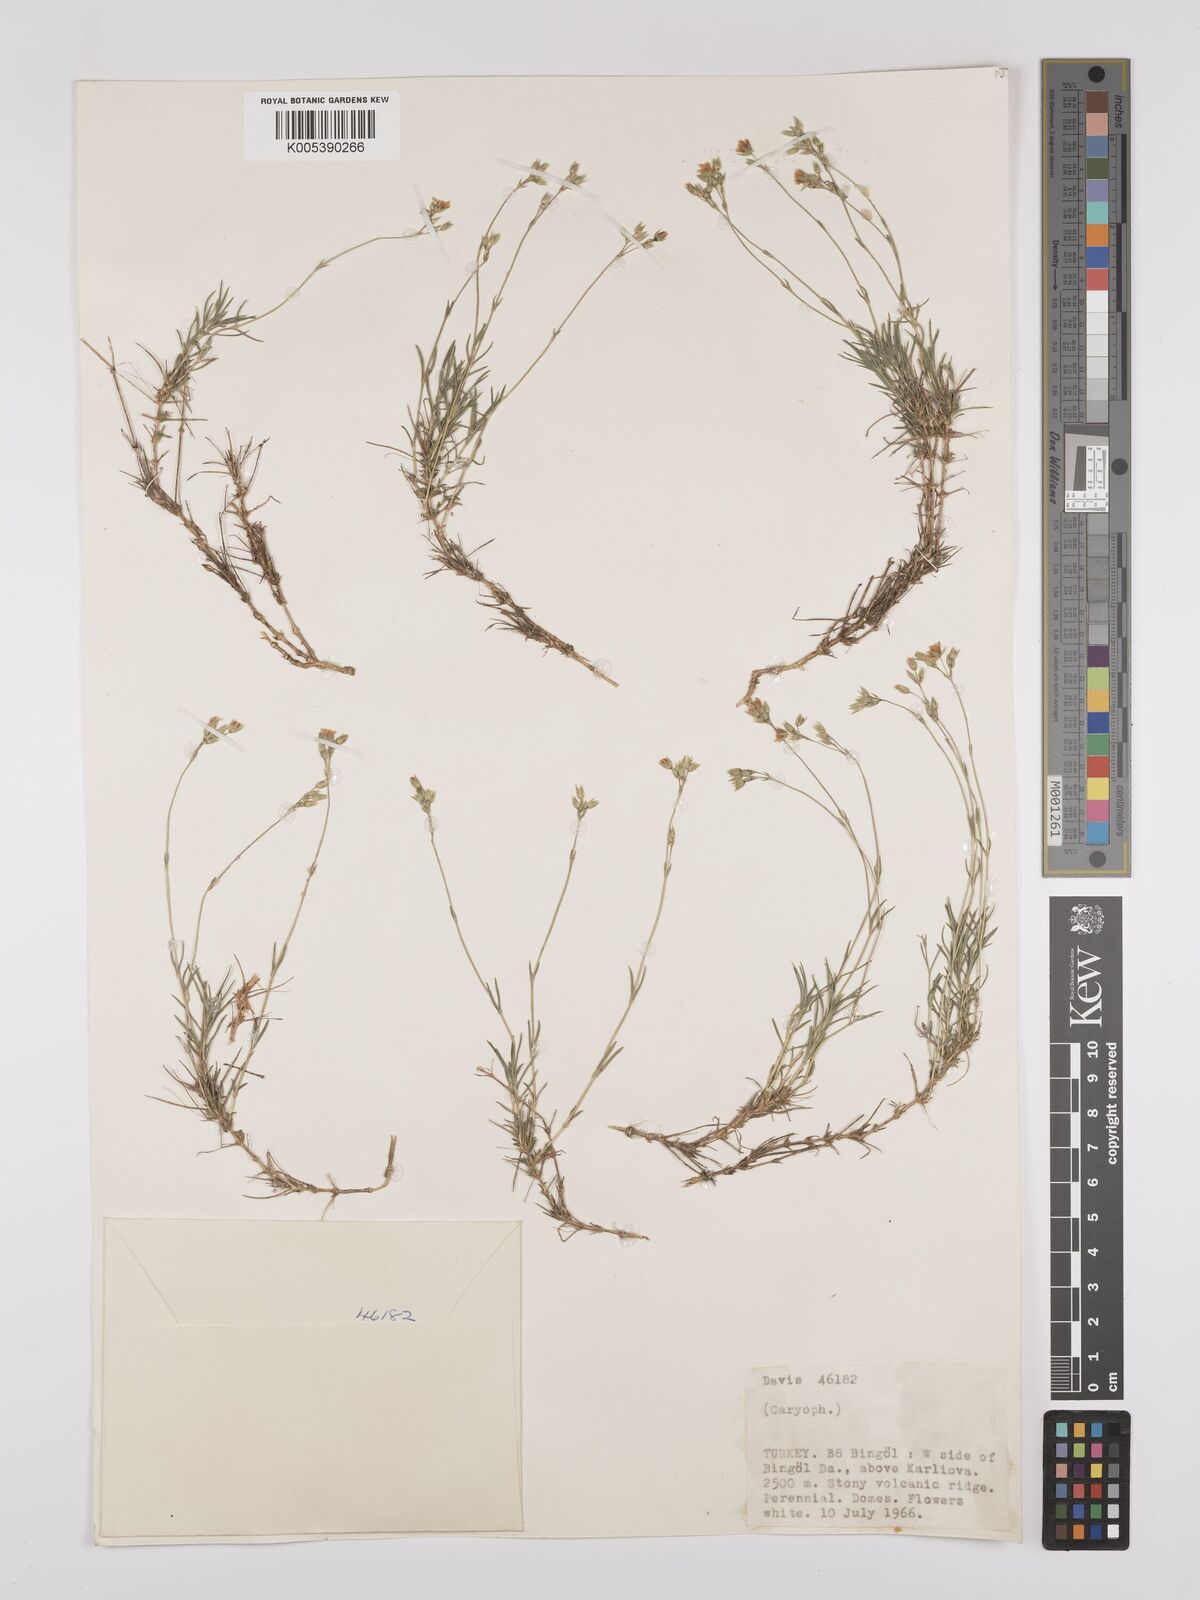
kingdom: Plantae
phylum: Tracheophyta
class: Magnoliopsida
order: Caryophyllales
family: Caryophyllaceae
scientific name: Caryophyllaceae
